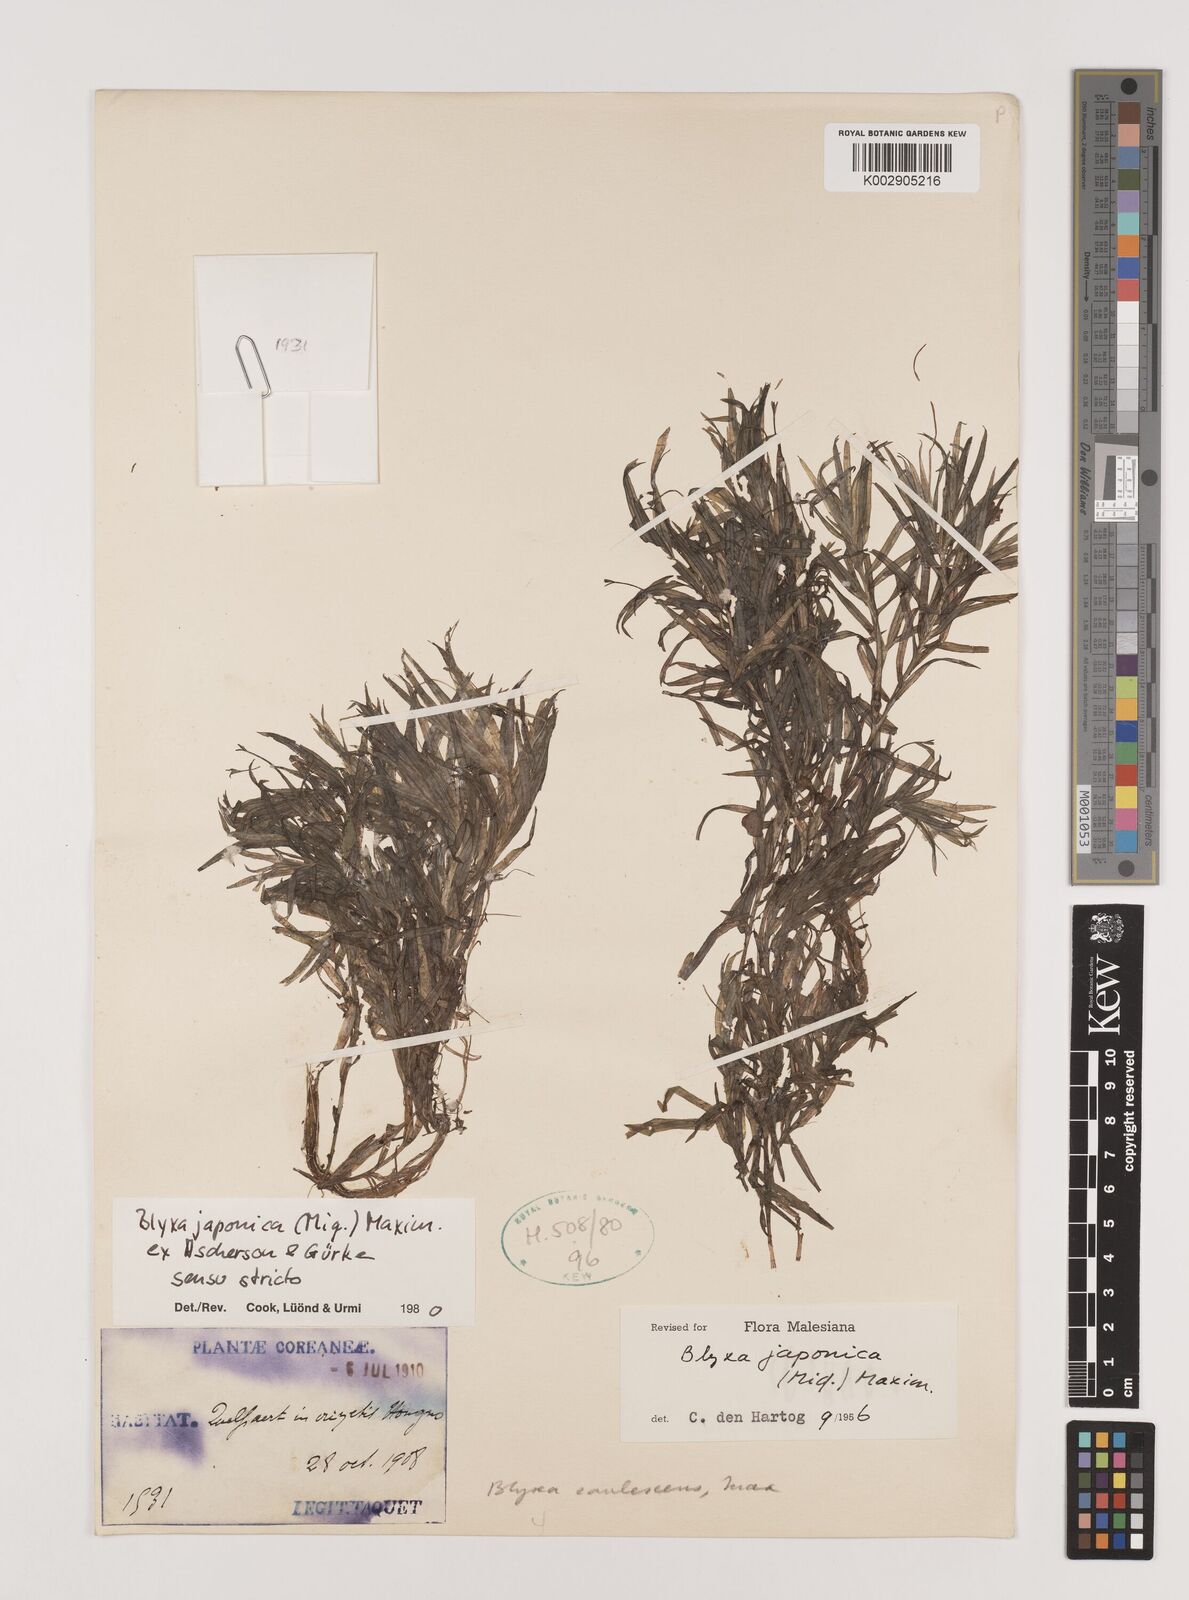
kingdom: Plantae
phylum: Tracheophyta
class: Liliopsida
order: Alismatales
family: Hydrocharitaceae
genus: Blyxa
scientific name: Blyxa japonica
